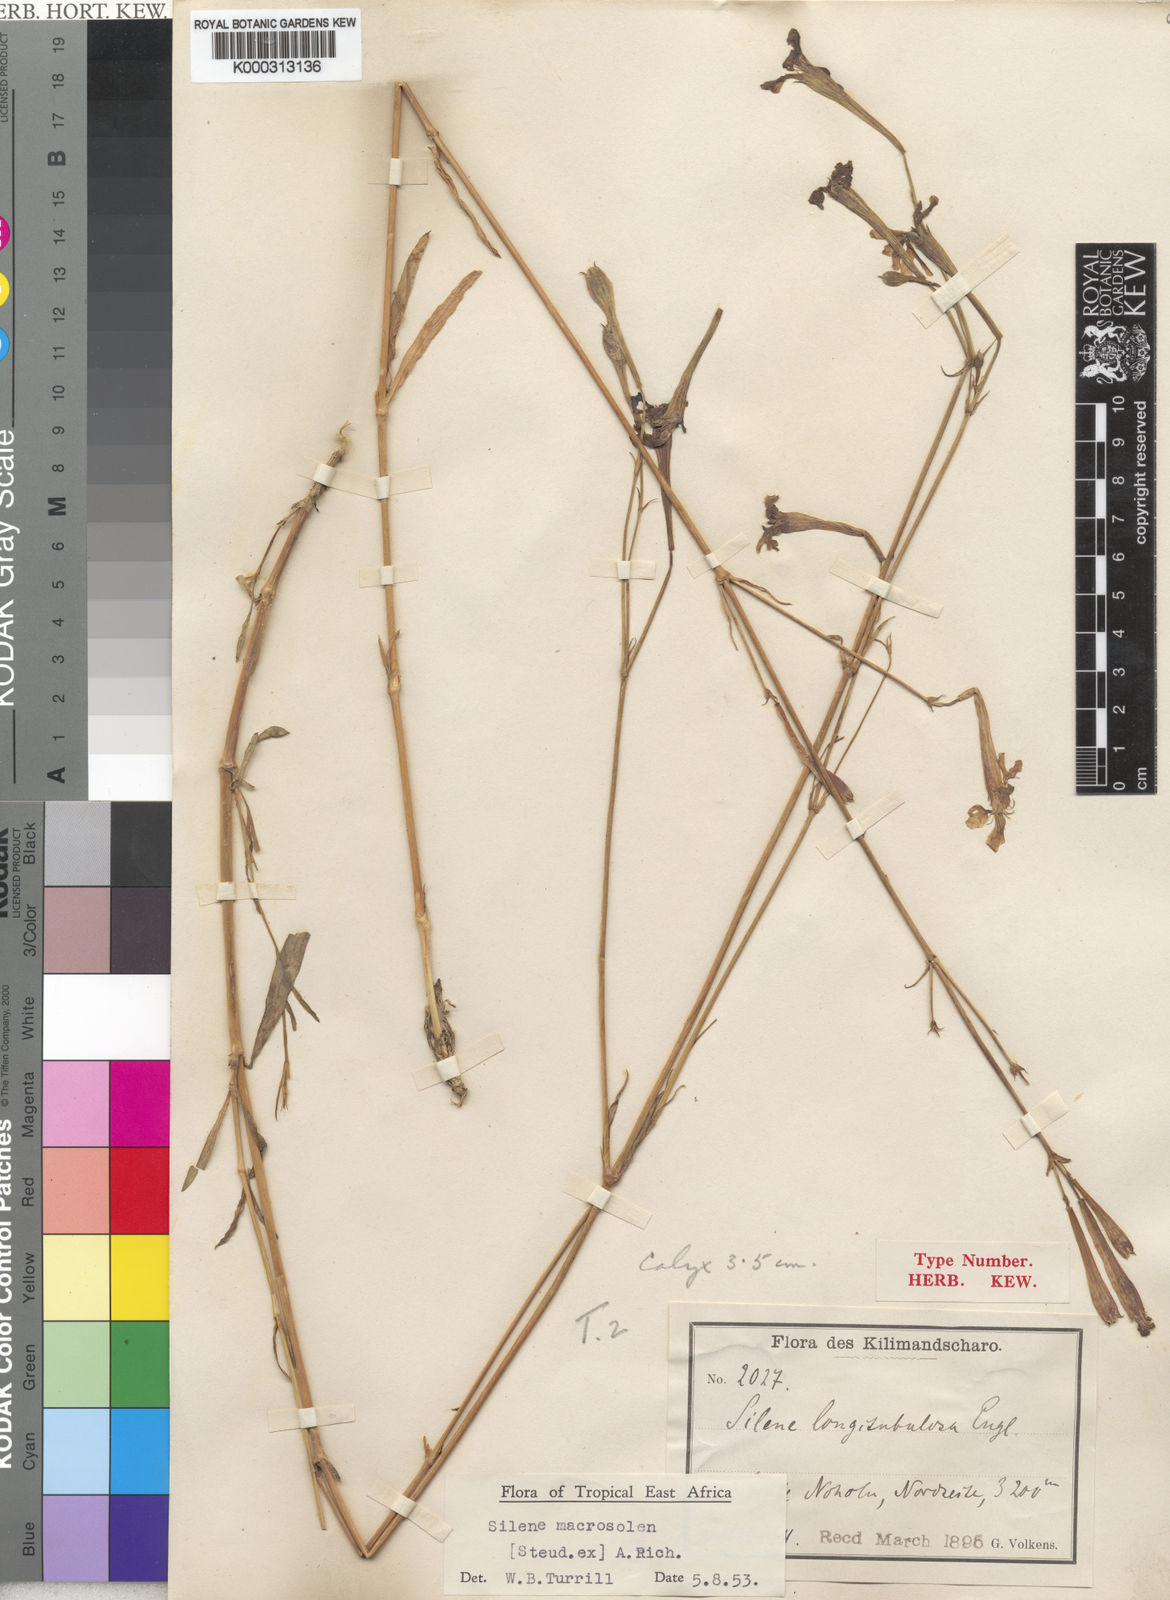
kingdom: Plantae
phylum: Tracheophyta
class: Magnoliopsida
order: Caryophyllales
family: Caryophyllaceae
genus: Silene
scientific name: Silene macrosolen
